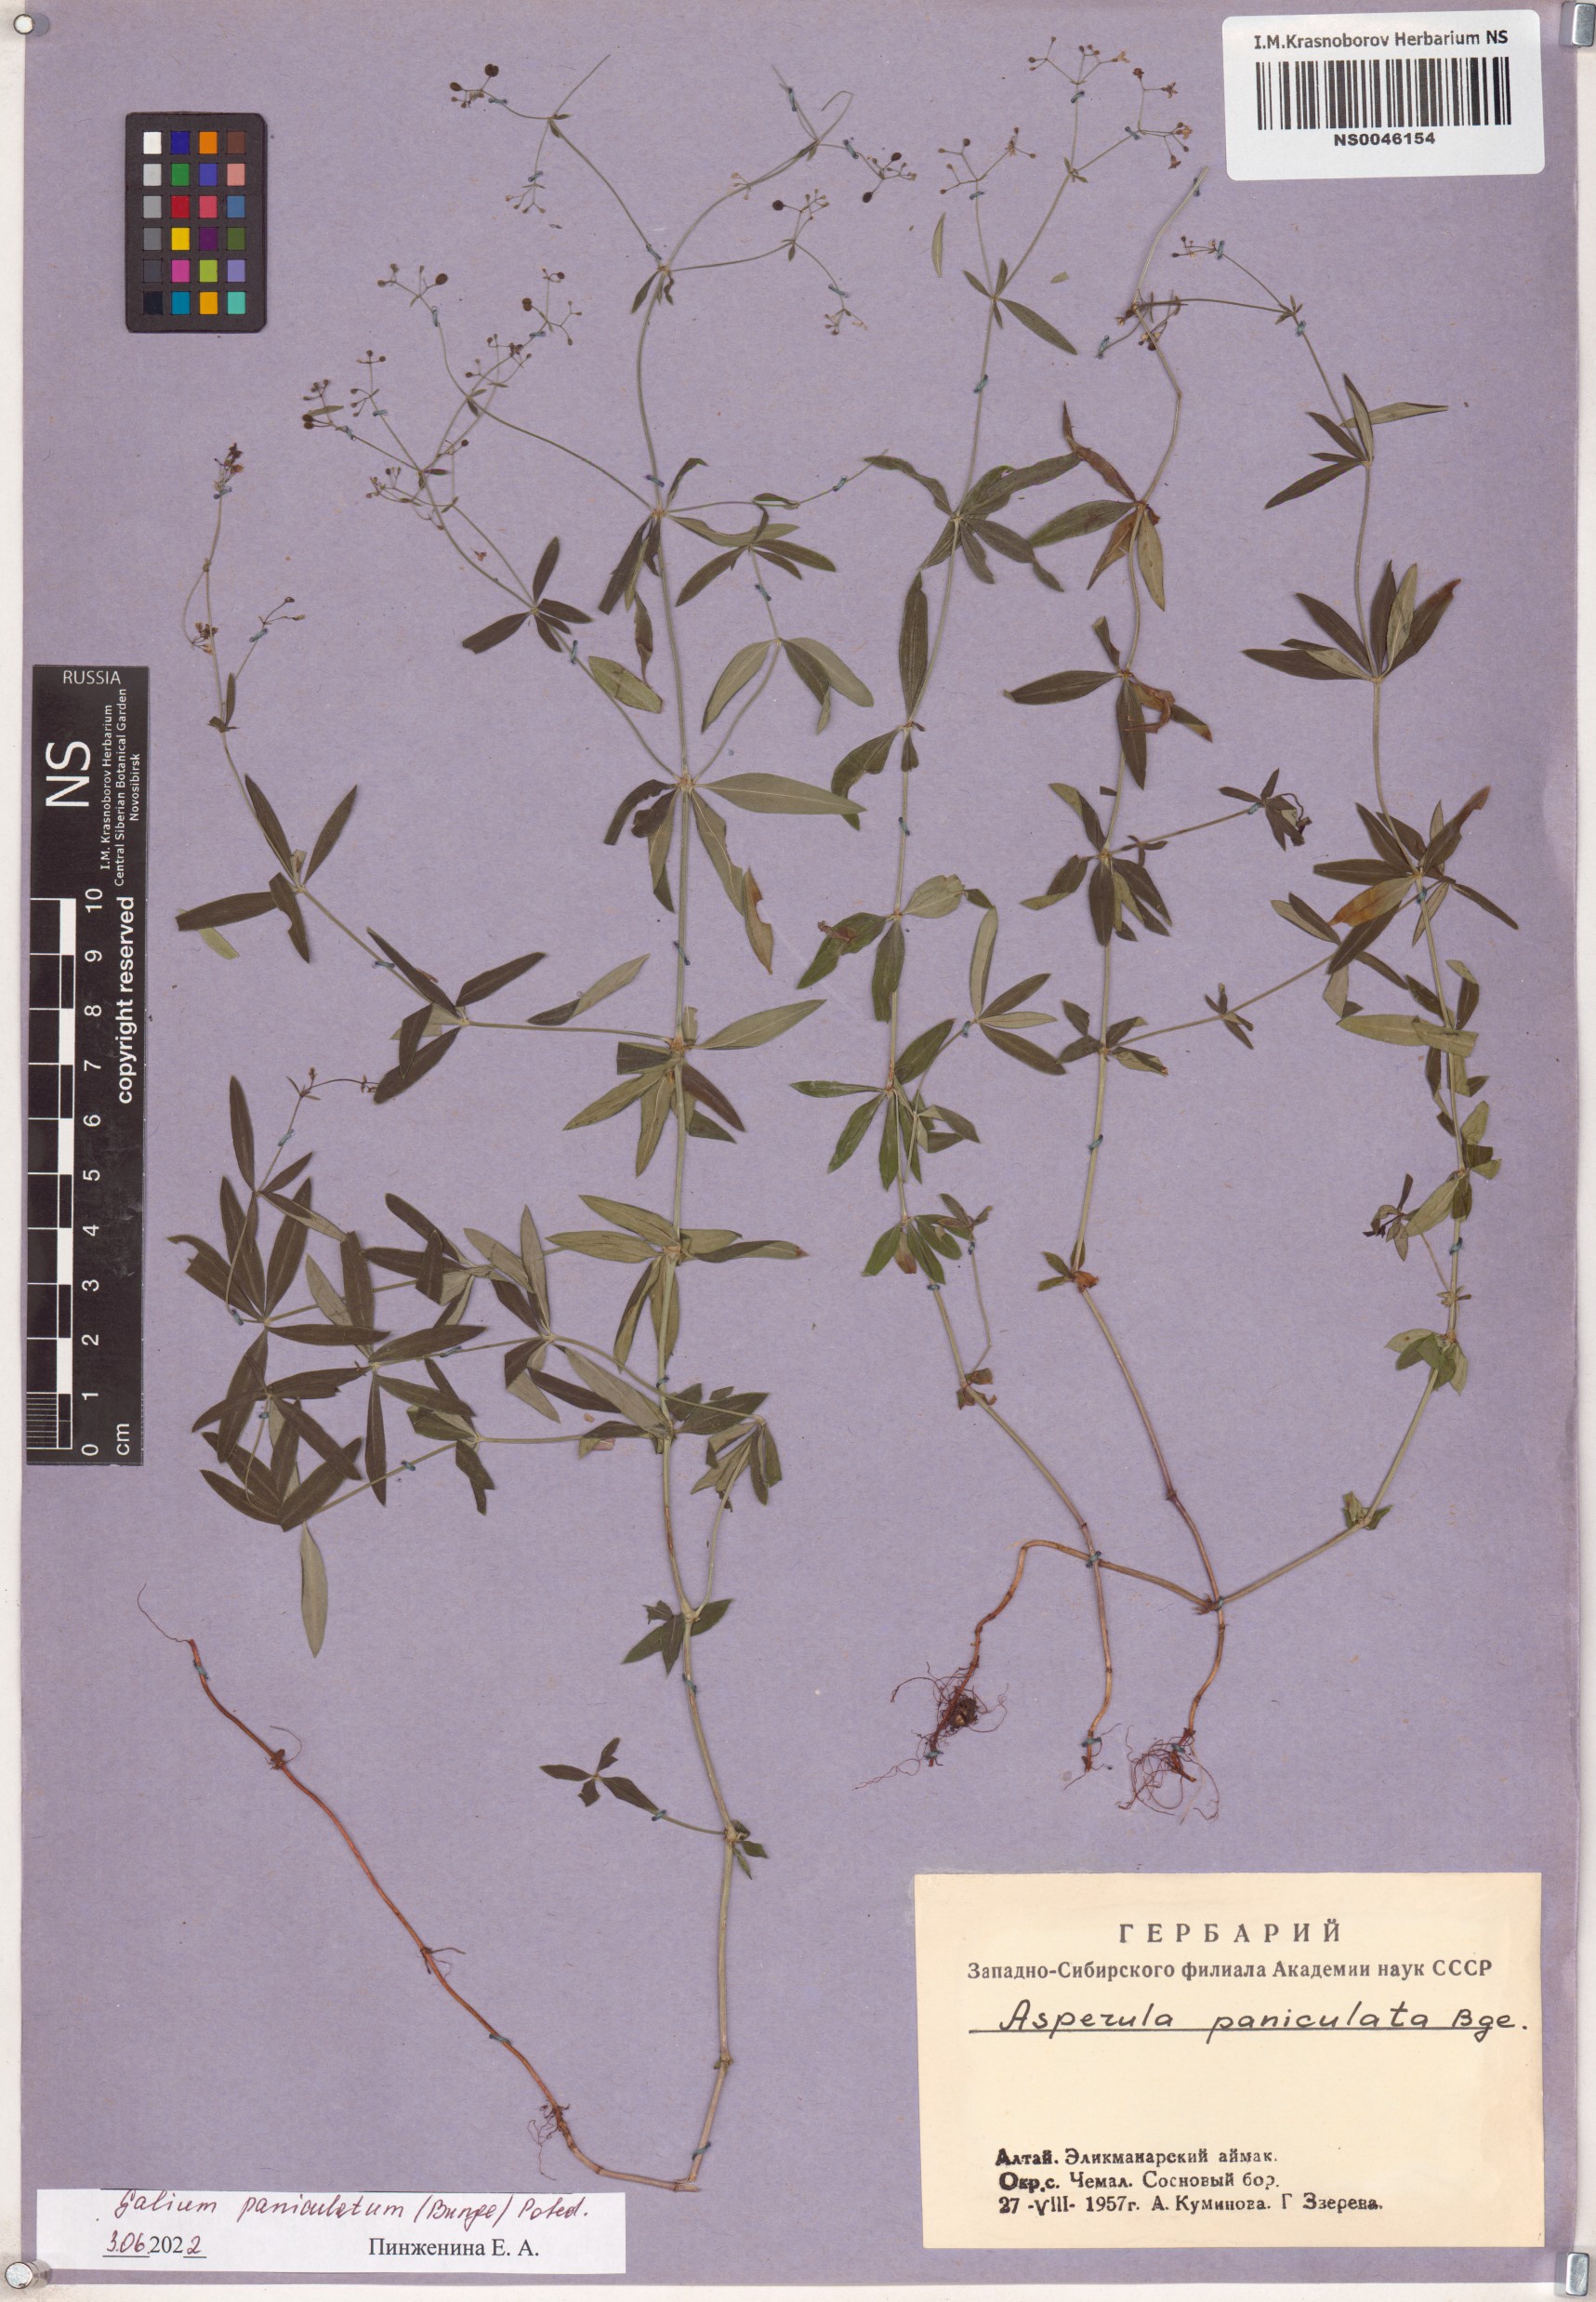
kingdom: Plantae
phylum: Tracheophyta
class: Magnoliopsida
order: Gentianales
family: Rubiaceae
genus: Galium
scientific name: Galium paniculatum
